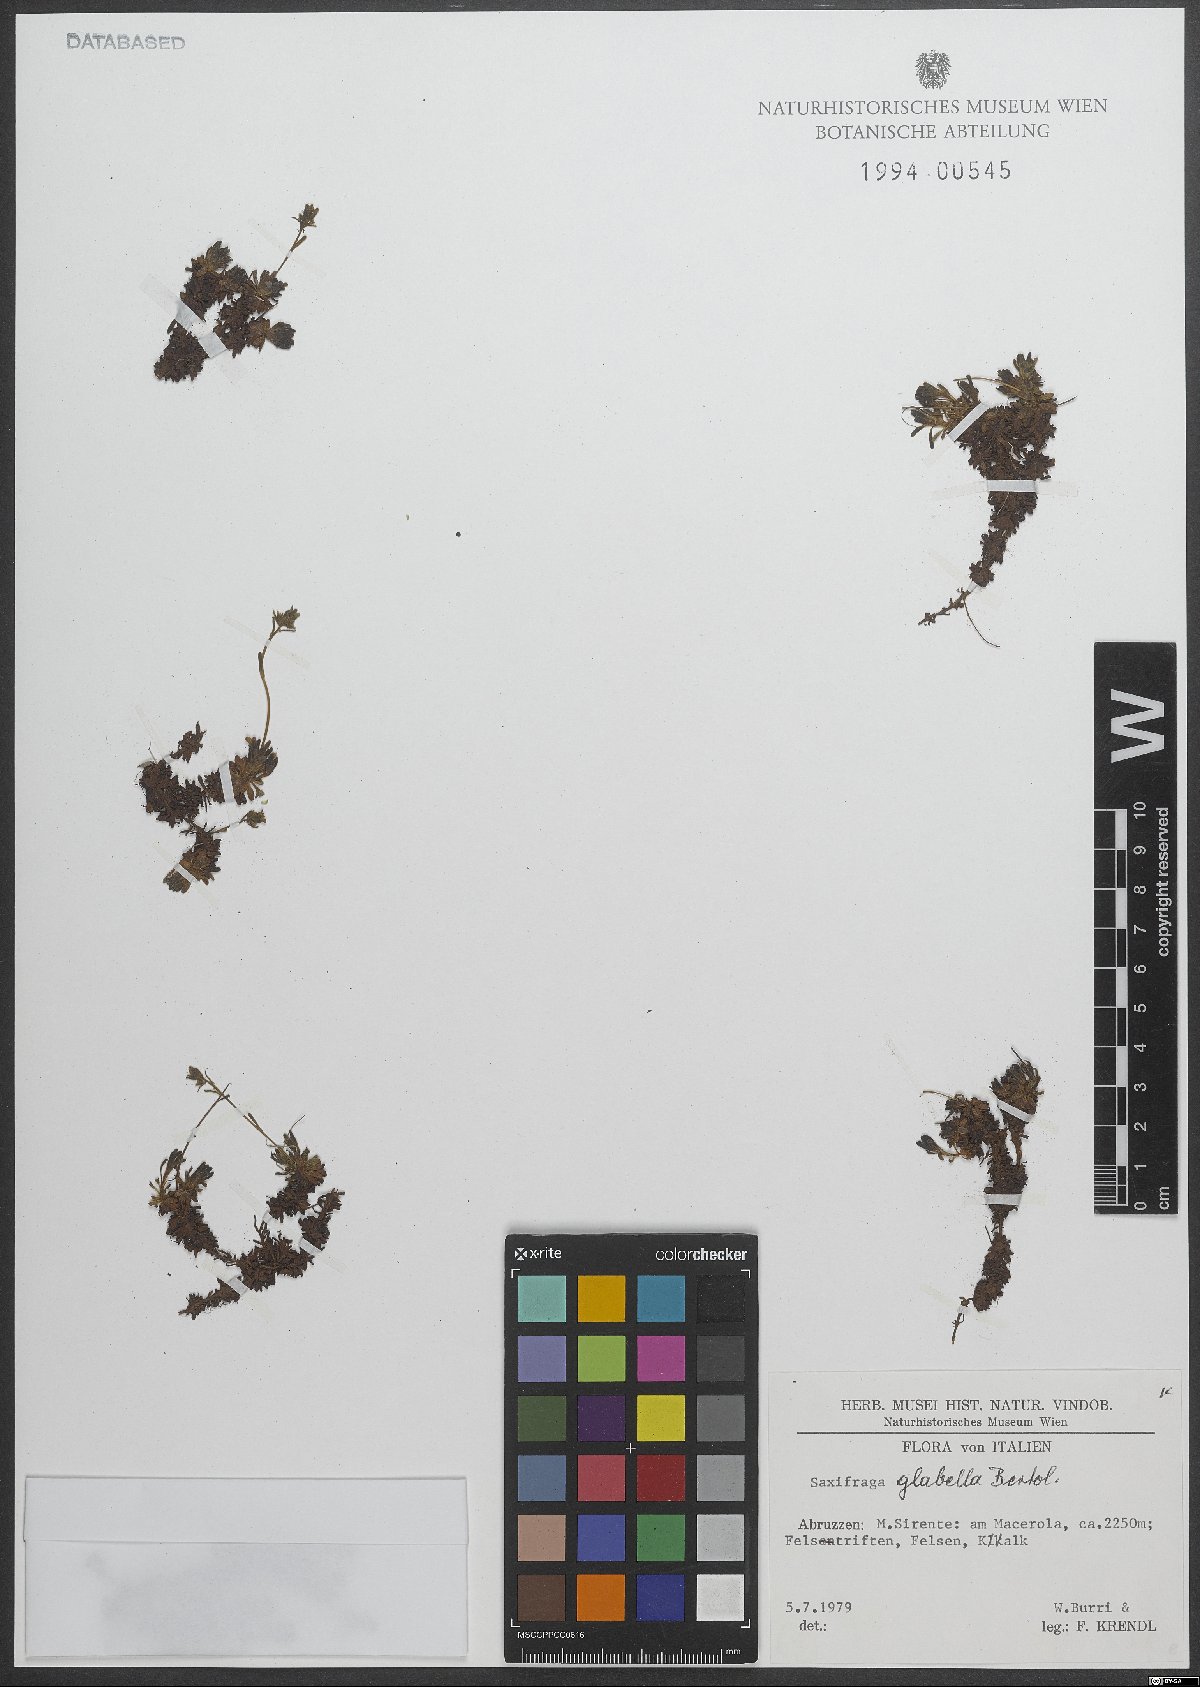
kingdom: Plantae
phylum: Tracheophyta
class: Magnoliopsida
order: Saxifragales
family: Saxifragaceae
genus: Saxifraga
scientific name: Saxifraga glabella
